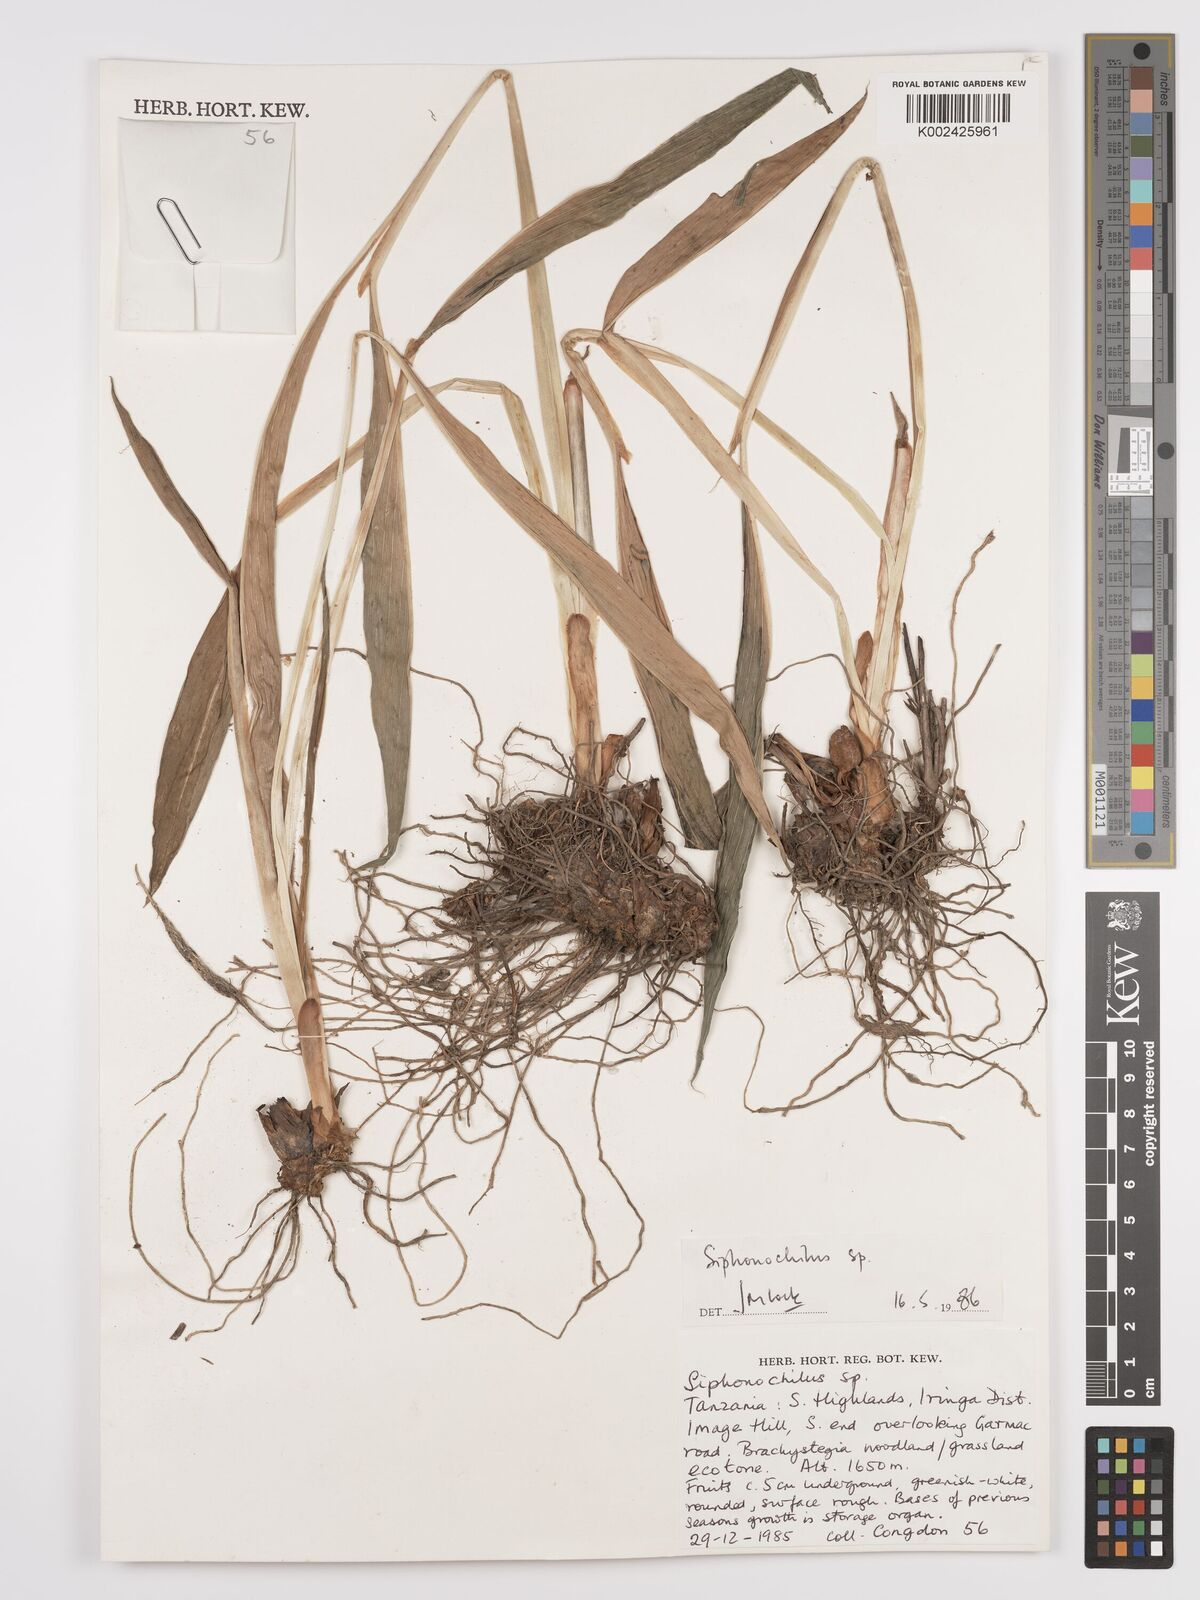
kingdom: Plantae
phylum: Tracheophyta
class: Liliopsida
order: Zingiberales
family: Zingiberaceae
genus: Siphonochilus
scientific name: Siphonochilus
